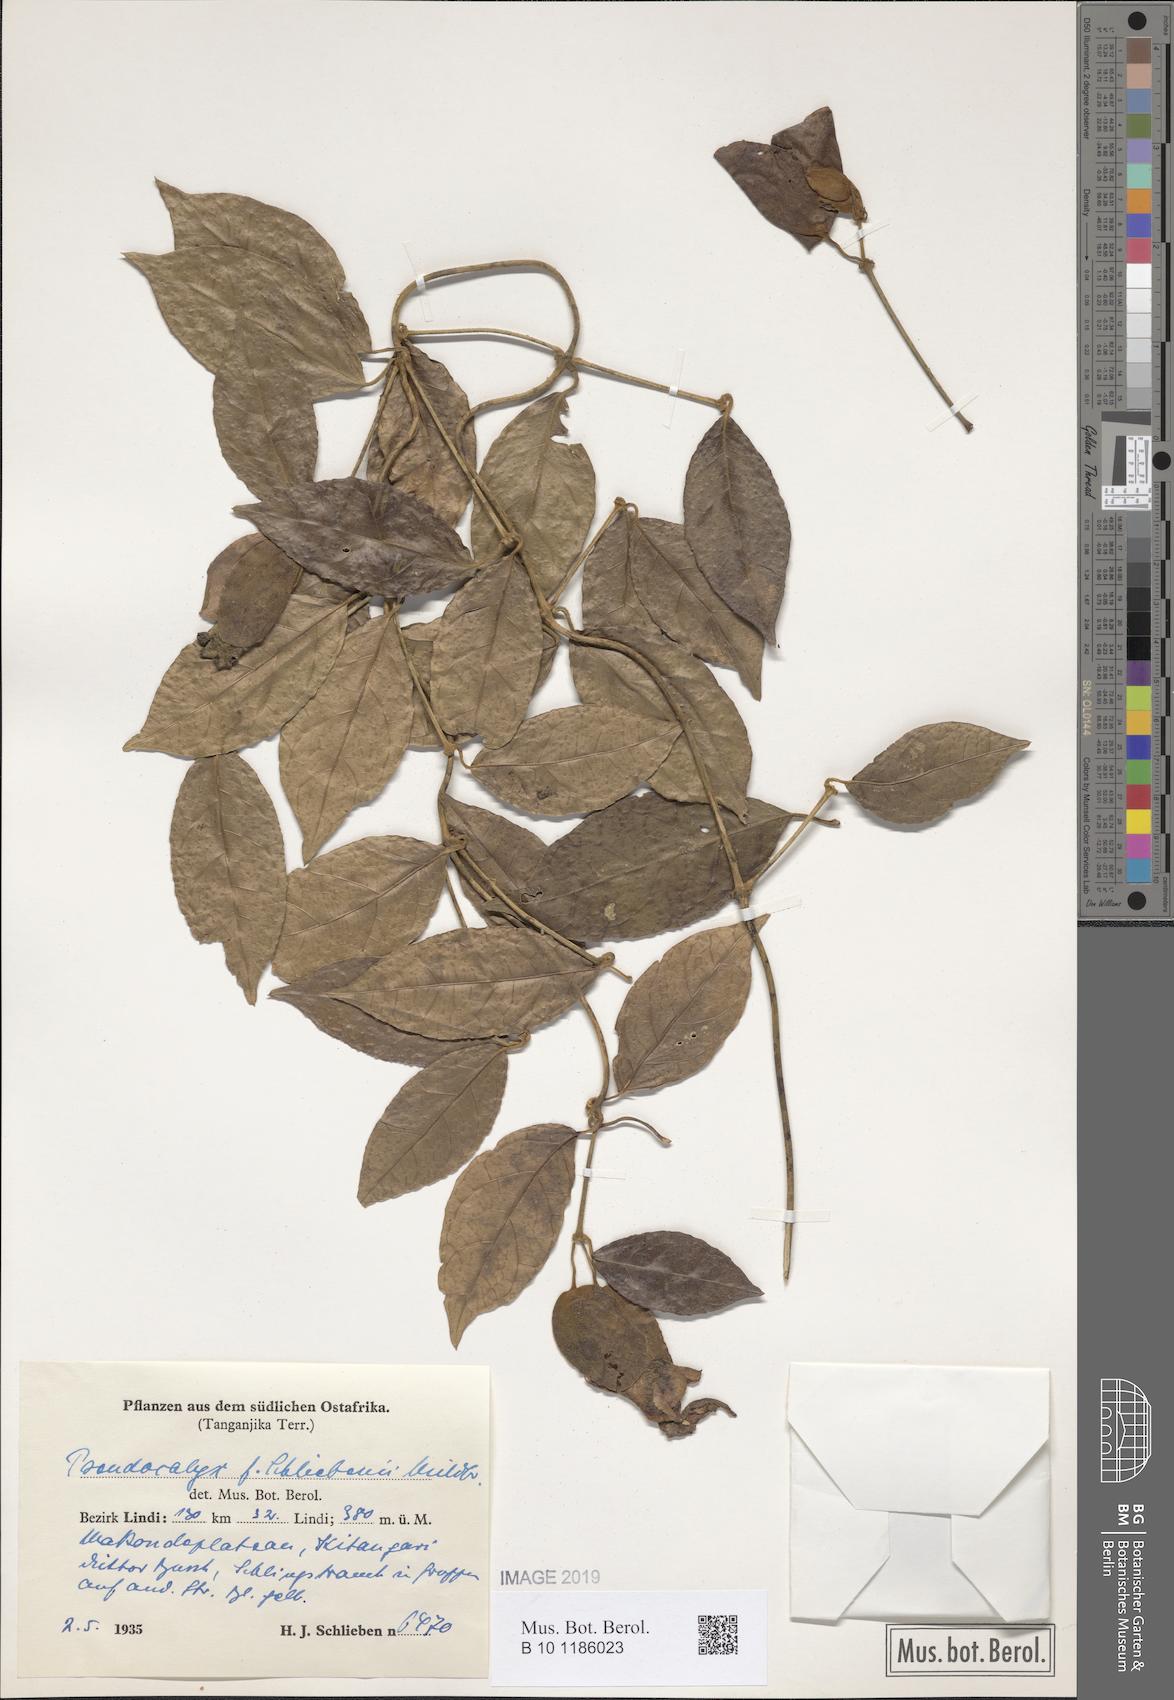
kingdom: Plantae
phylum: Tracheophyta
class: Magnoliopsida
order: Lamiales
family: Acanthaceae
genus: Pseudocalyx
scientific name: Pseudocalyx
